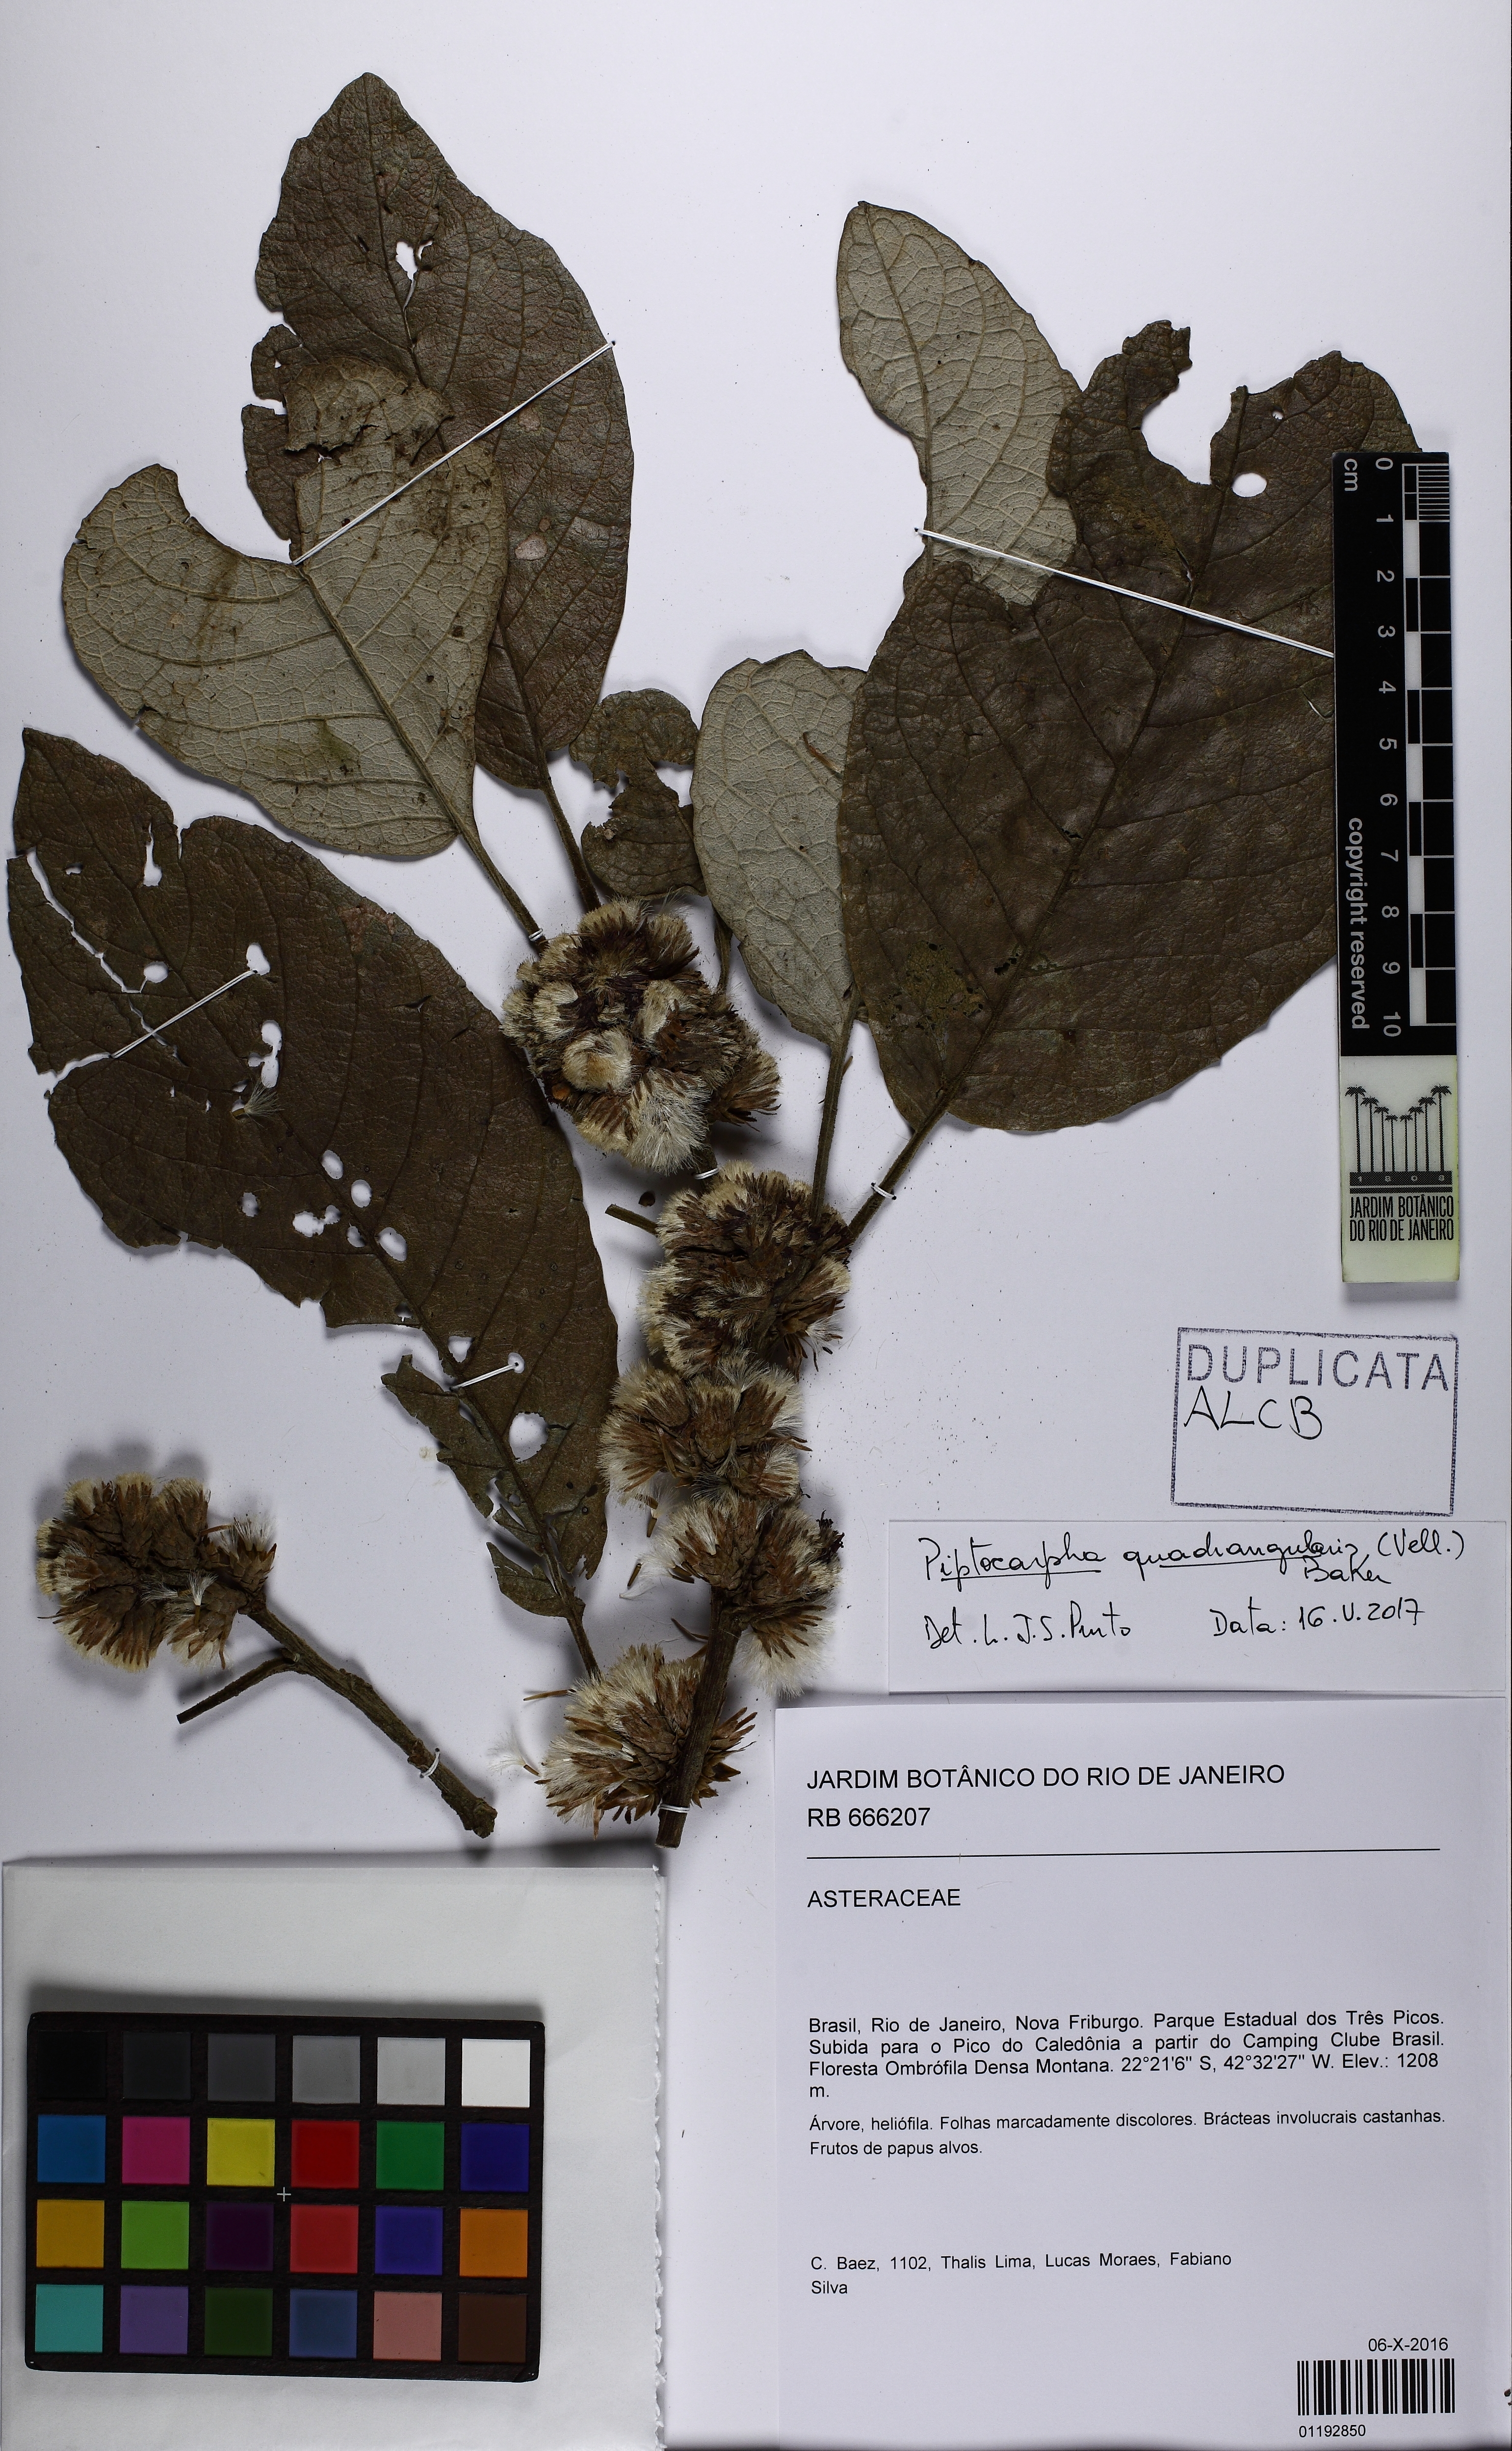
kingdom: Plantae
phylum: Tracheophyta
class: Magnoliopsida
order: Asterales
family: Asteraceae
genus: Piptocarpha
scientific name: Piptocarpha macropoda
